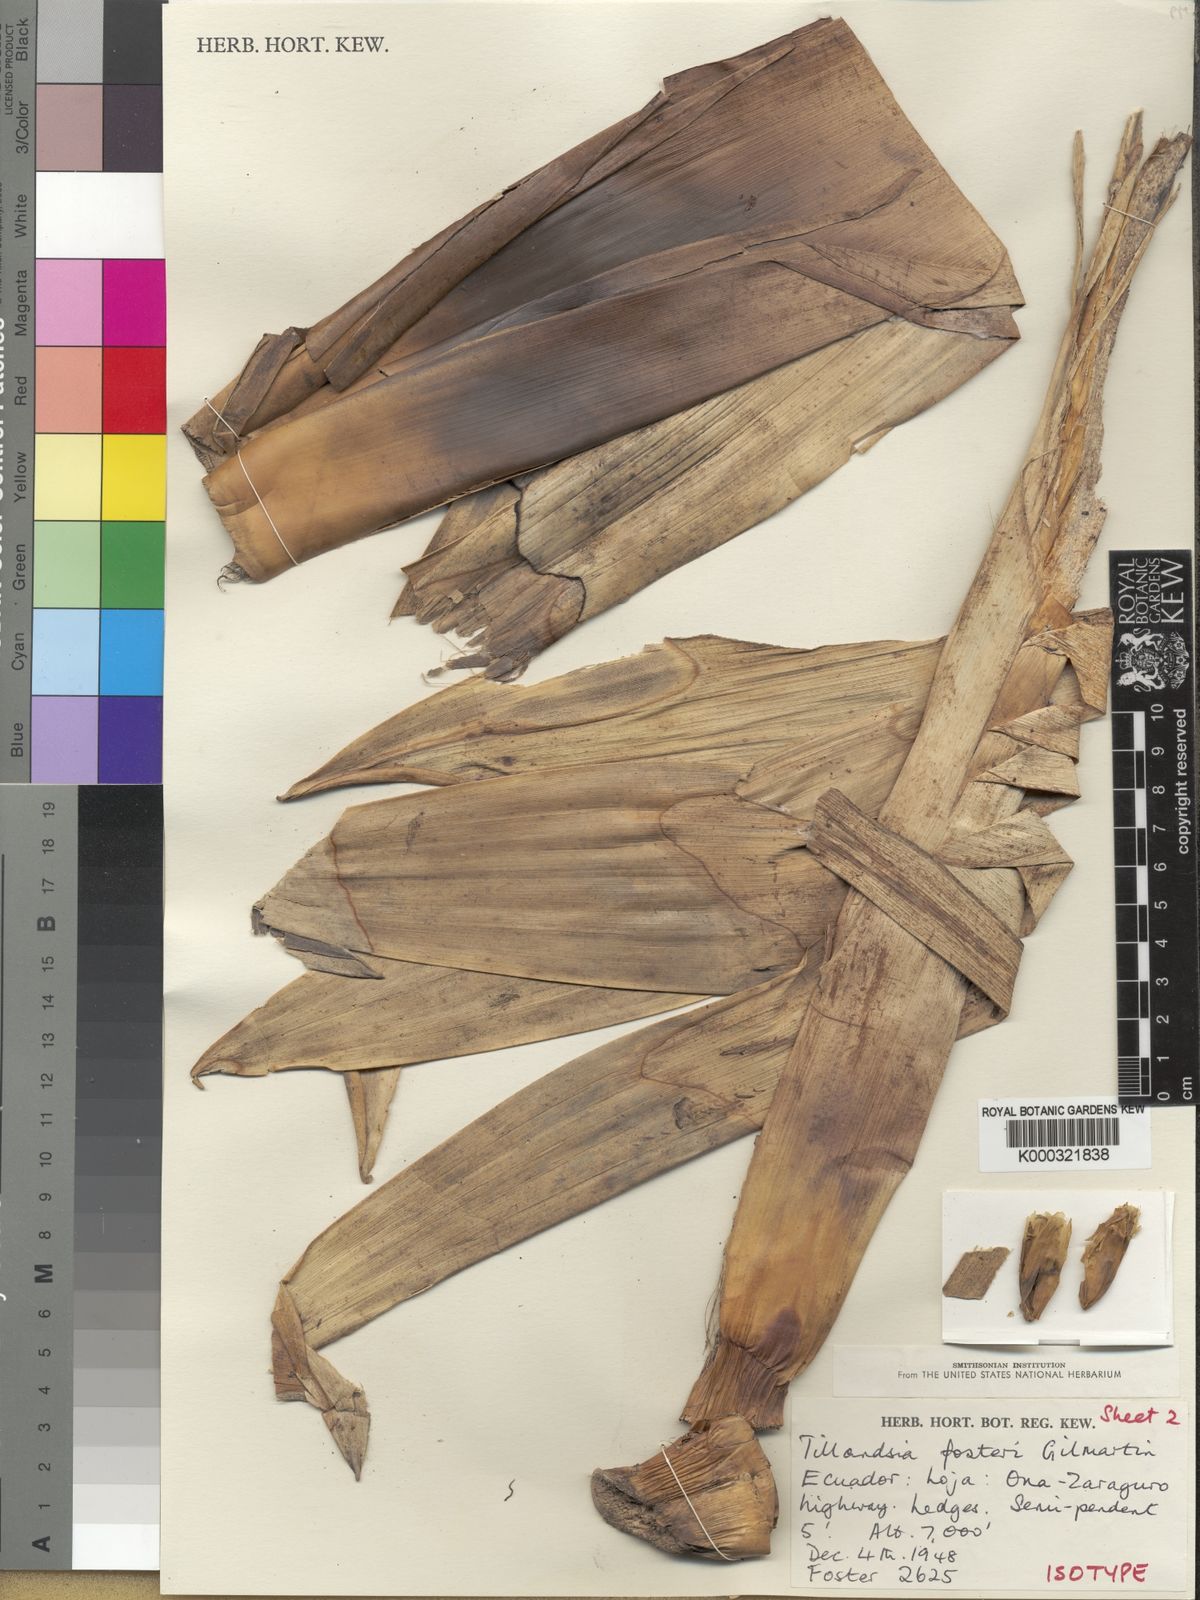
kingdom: Plantae
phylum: Tracheophyta
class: Liliopsida
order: Poales
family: Bromeliaceae
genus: Tillandsia
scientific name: Tillandsia demissa
